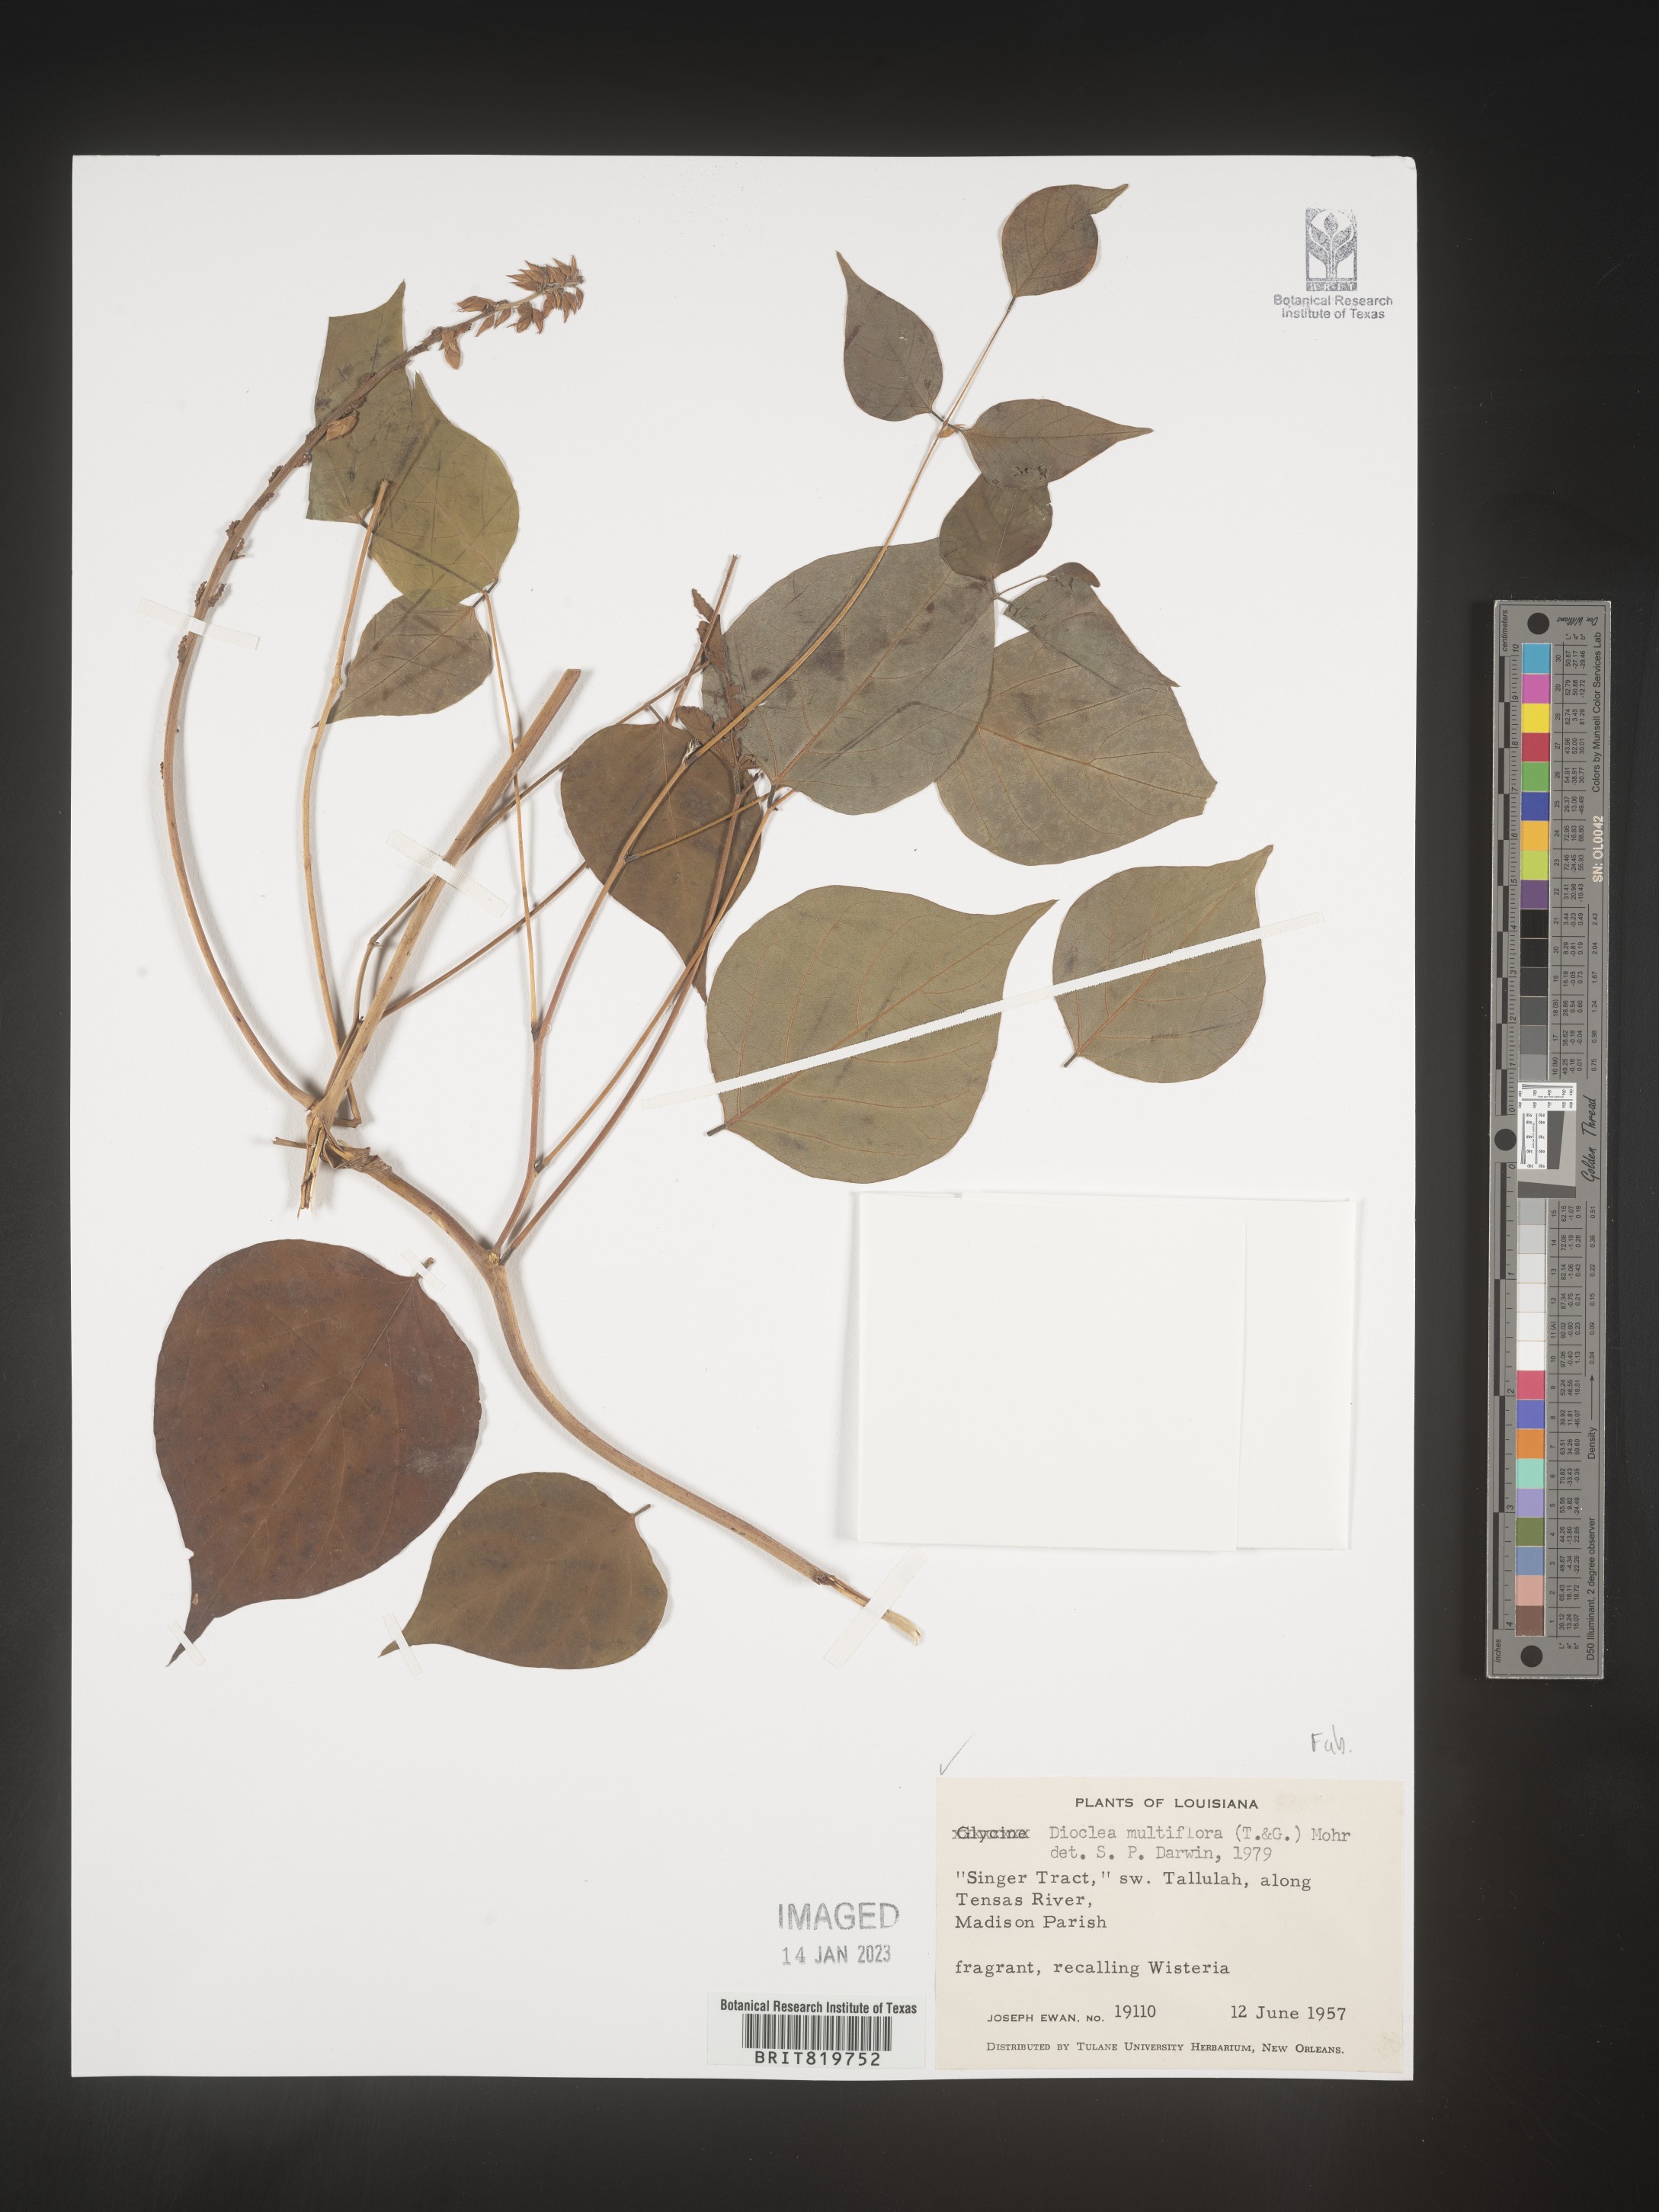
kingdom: Plantae
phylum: Tracheophyta
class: Magnoliopsida
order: Fabales
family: Fabaceae
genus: Dioclea
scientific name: Dioclea
